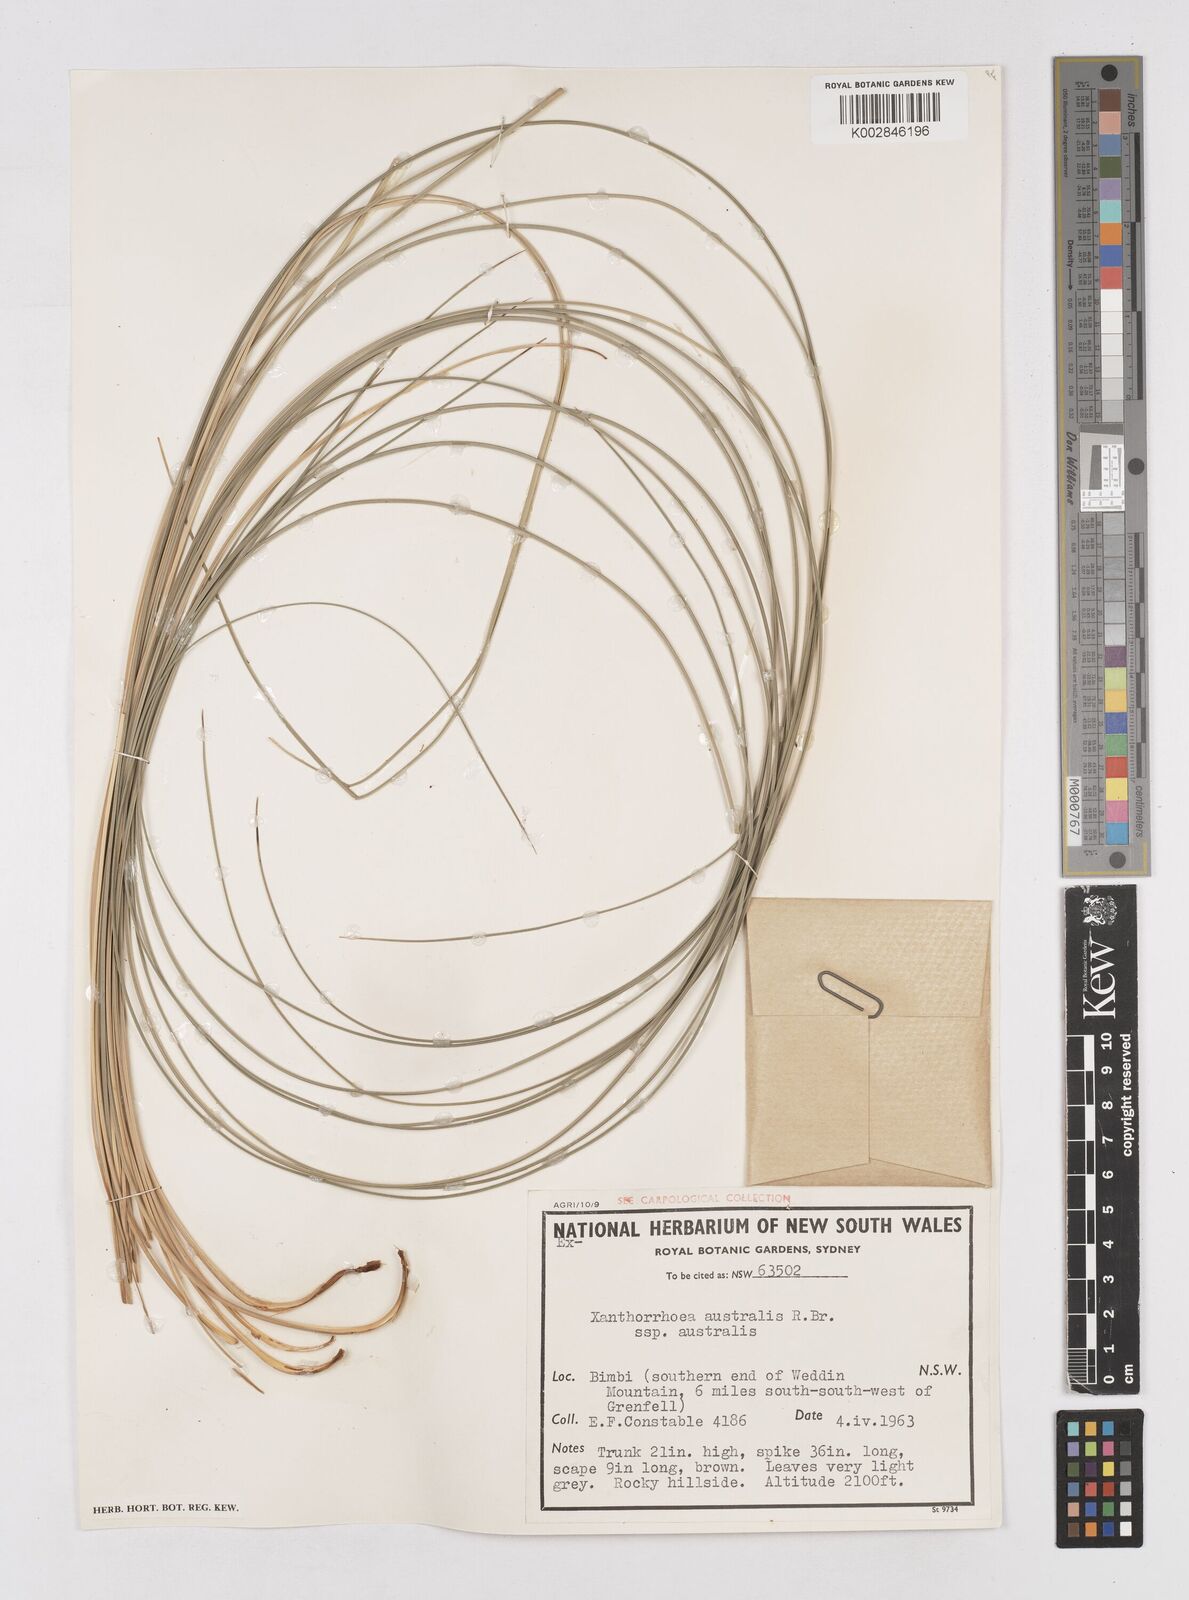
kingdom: Plantae
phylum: Tracheophyta
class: Liliopsida
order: Asparagales
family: Asphodelaceae
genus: Xanthorrhoea
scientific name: Xanthorrhoea australis
